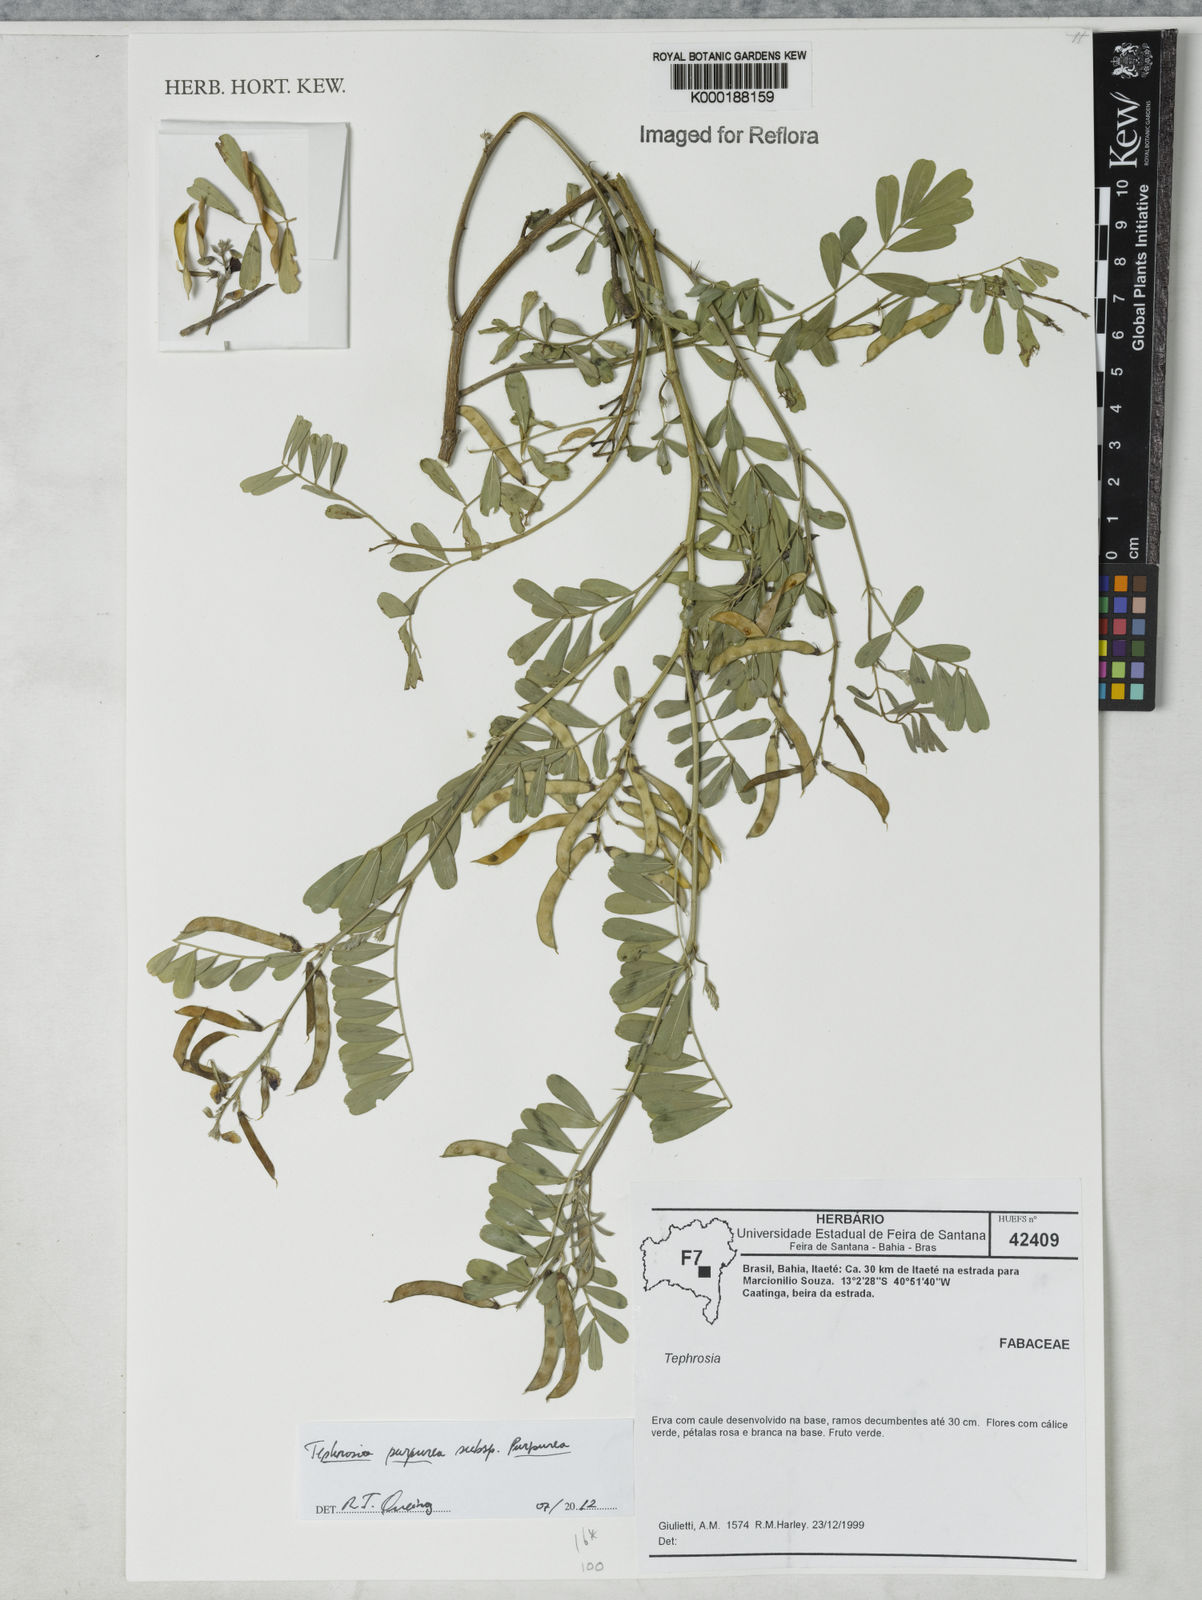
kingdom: Plantae
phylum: Tracheophyta
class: Magnoliopsida
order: Fabales
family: Fabaceae
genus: Tephrosia
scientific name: Tephrosia purpurea
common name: Fishpoison
